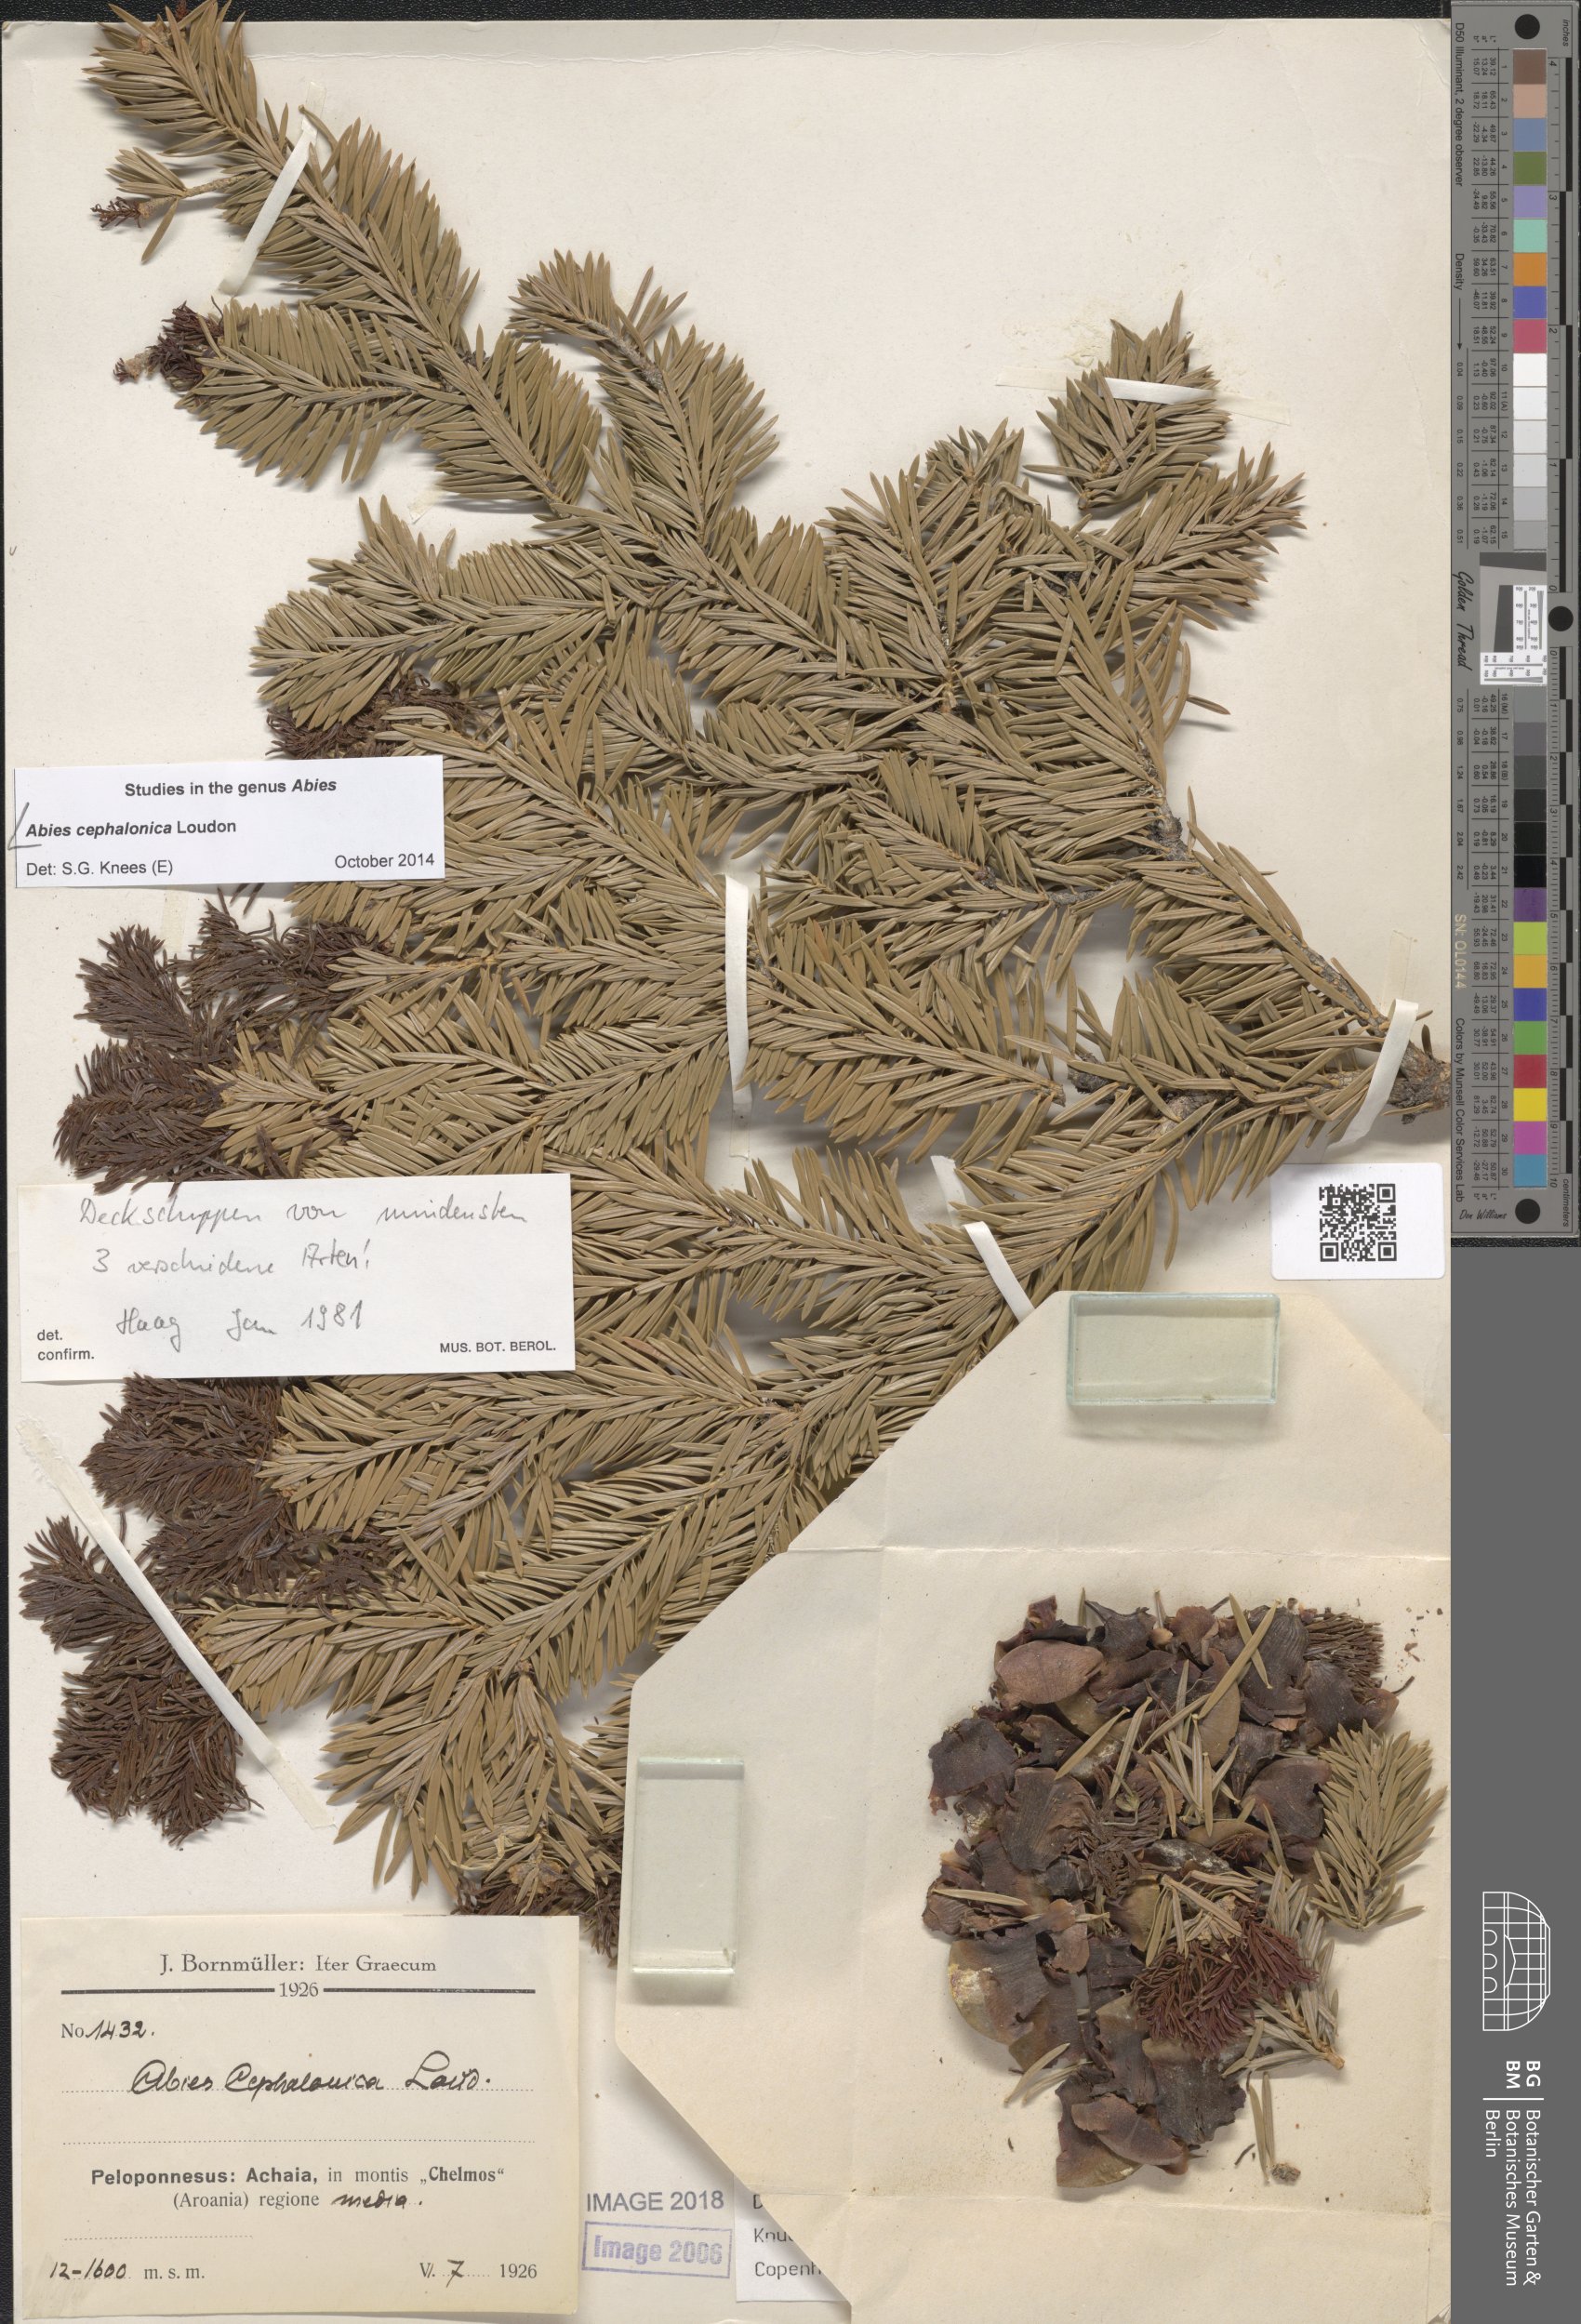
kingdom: Plantae
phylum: Tracheophyta
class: Pinopsida
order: Pinales
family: Pinaceae
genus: Abies
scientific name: Abies cephalonica
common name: Greek fir
